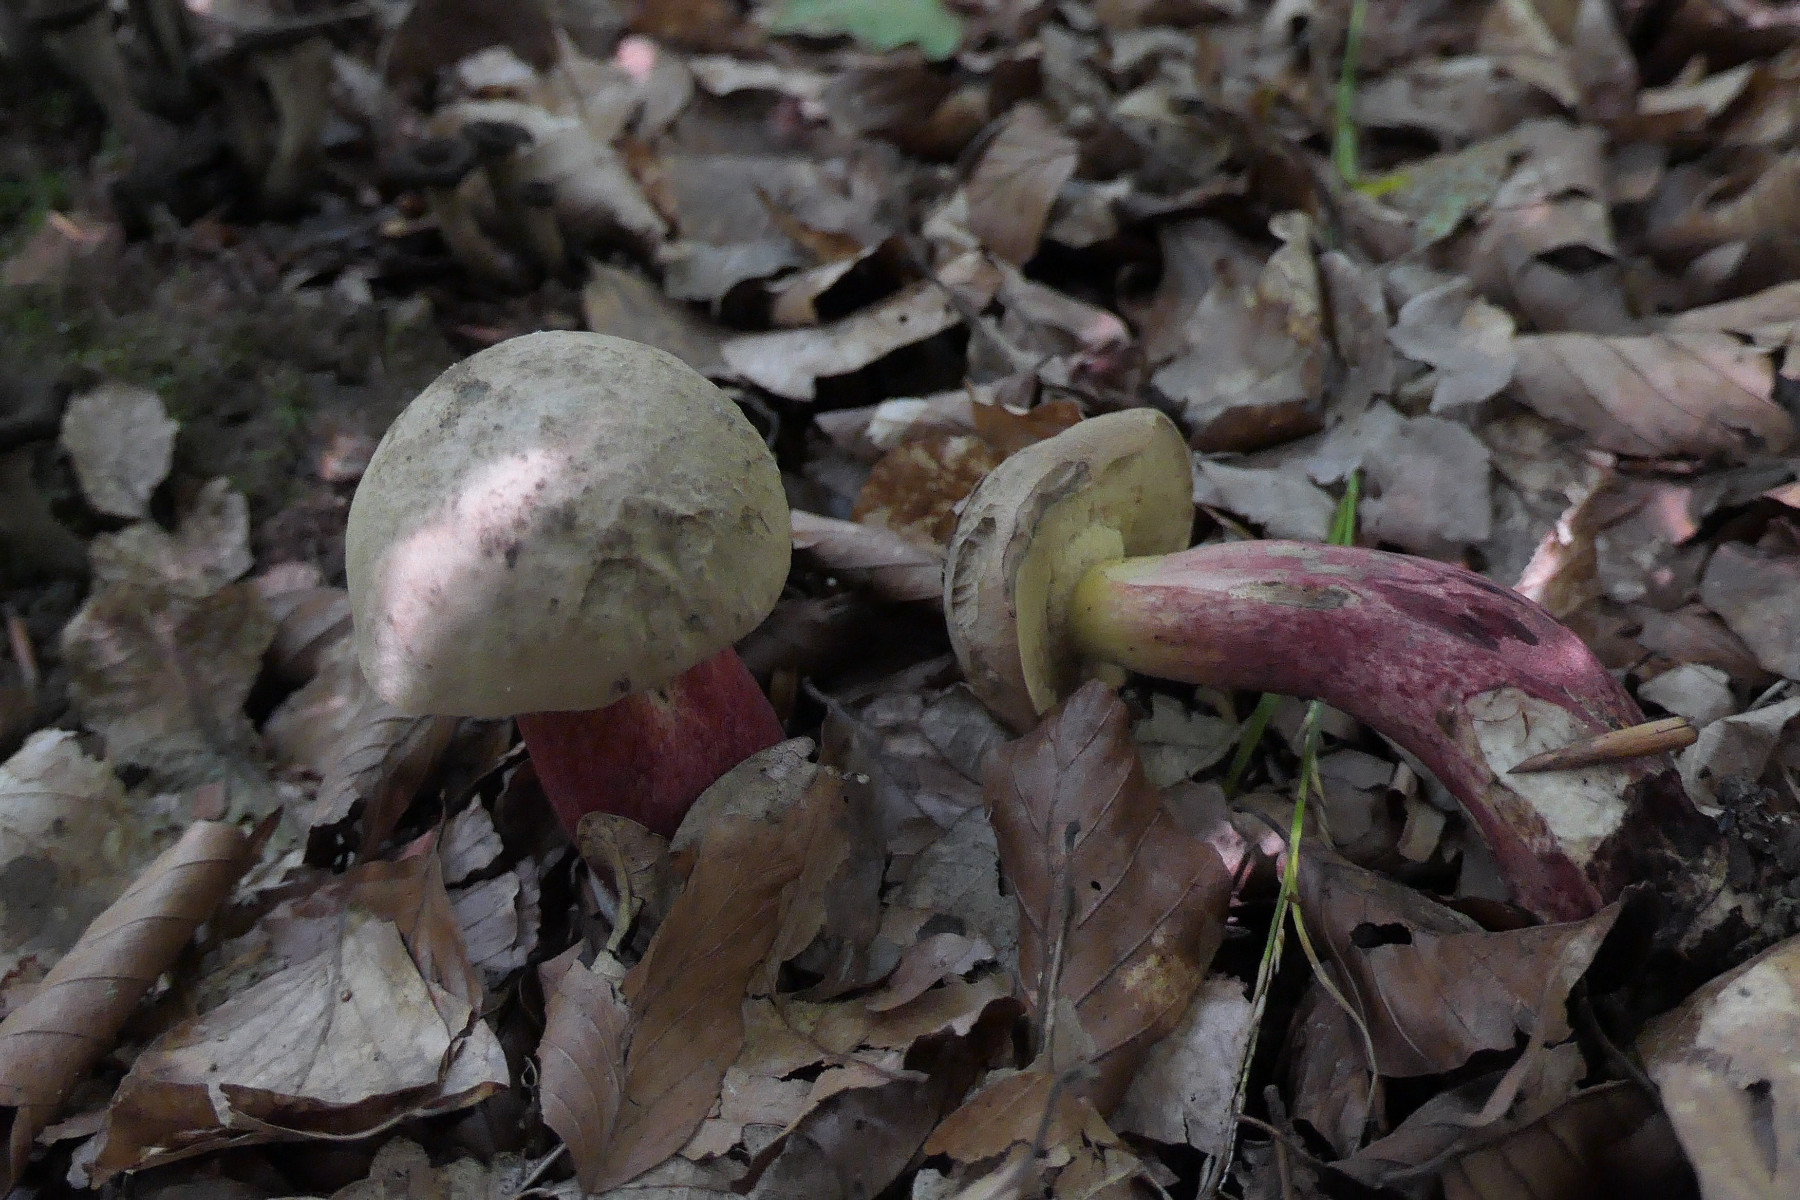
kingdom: Fungi
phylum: Basidiomycota
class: Agaricomycetes
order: Boletales
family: Boletaceae
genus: Caloboletus
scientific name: Caloboletus calopus
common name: skønfodet rørhat
